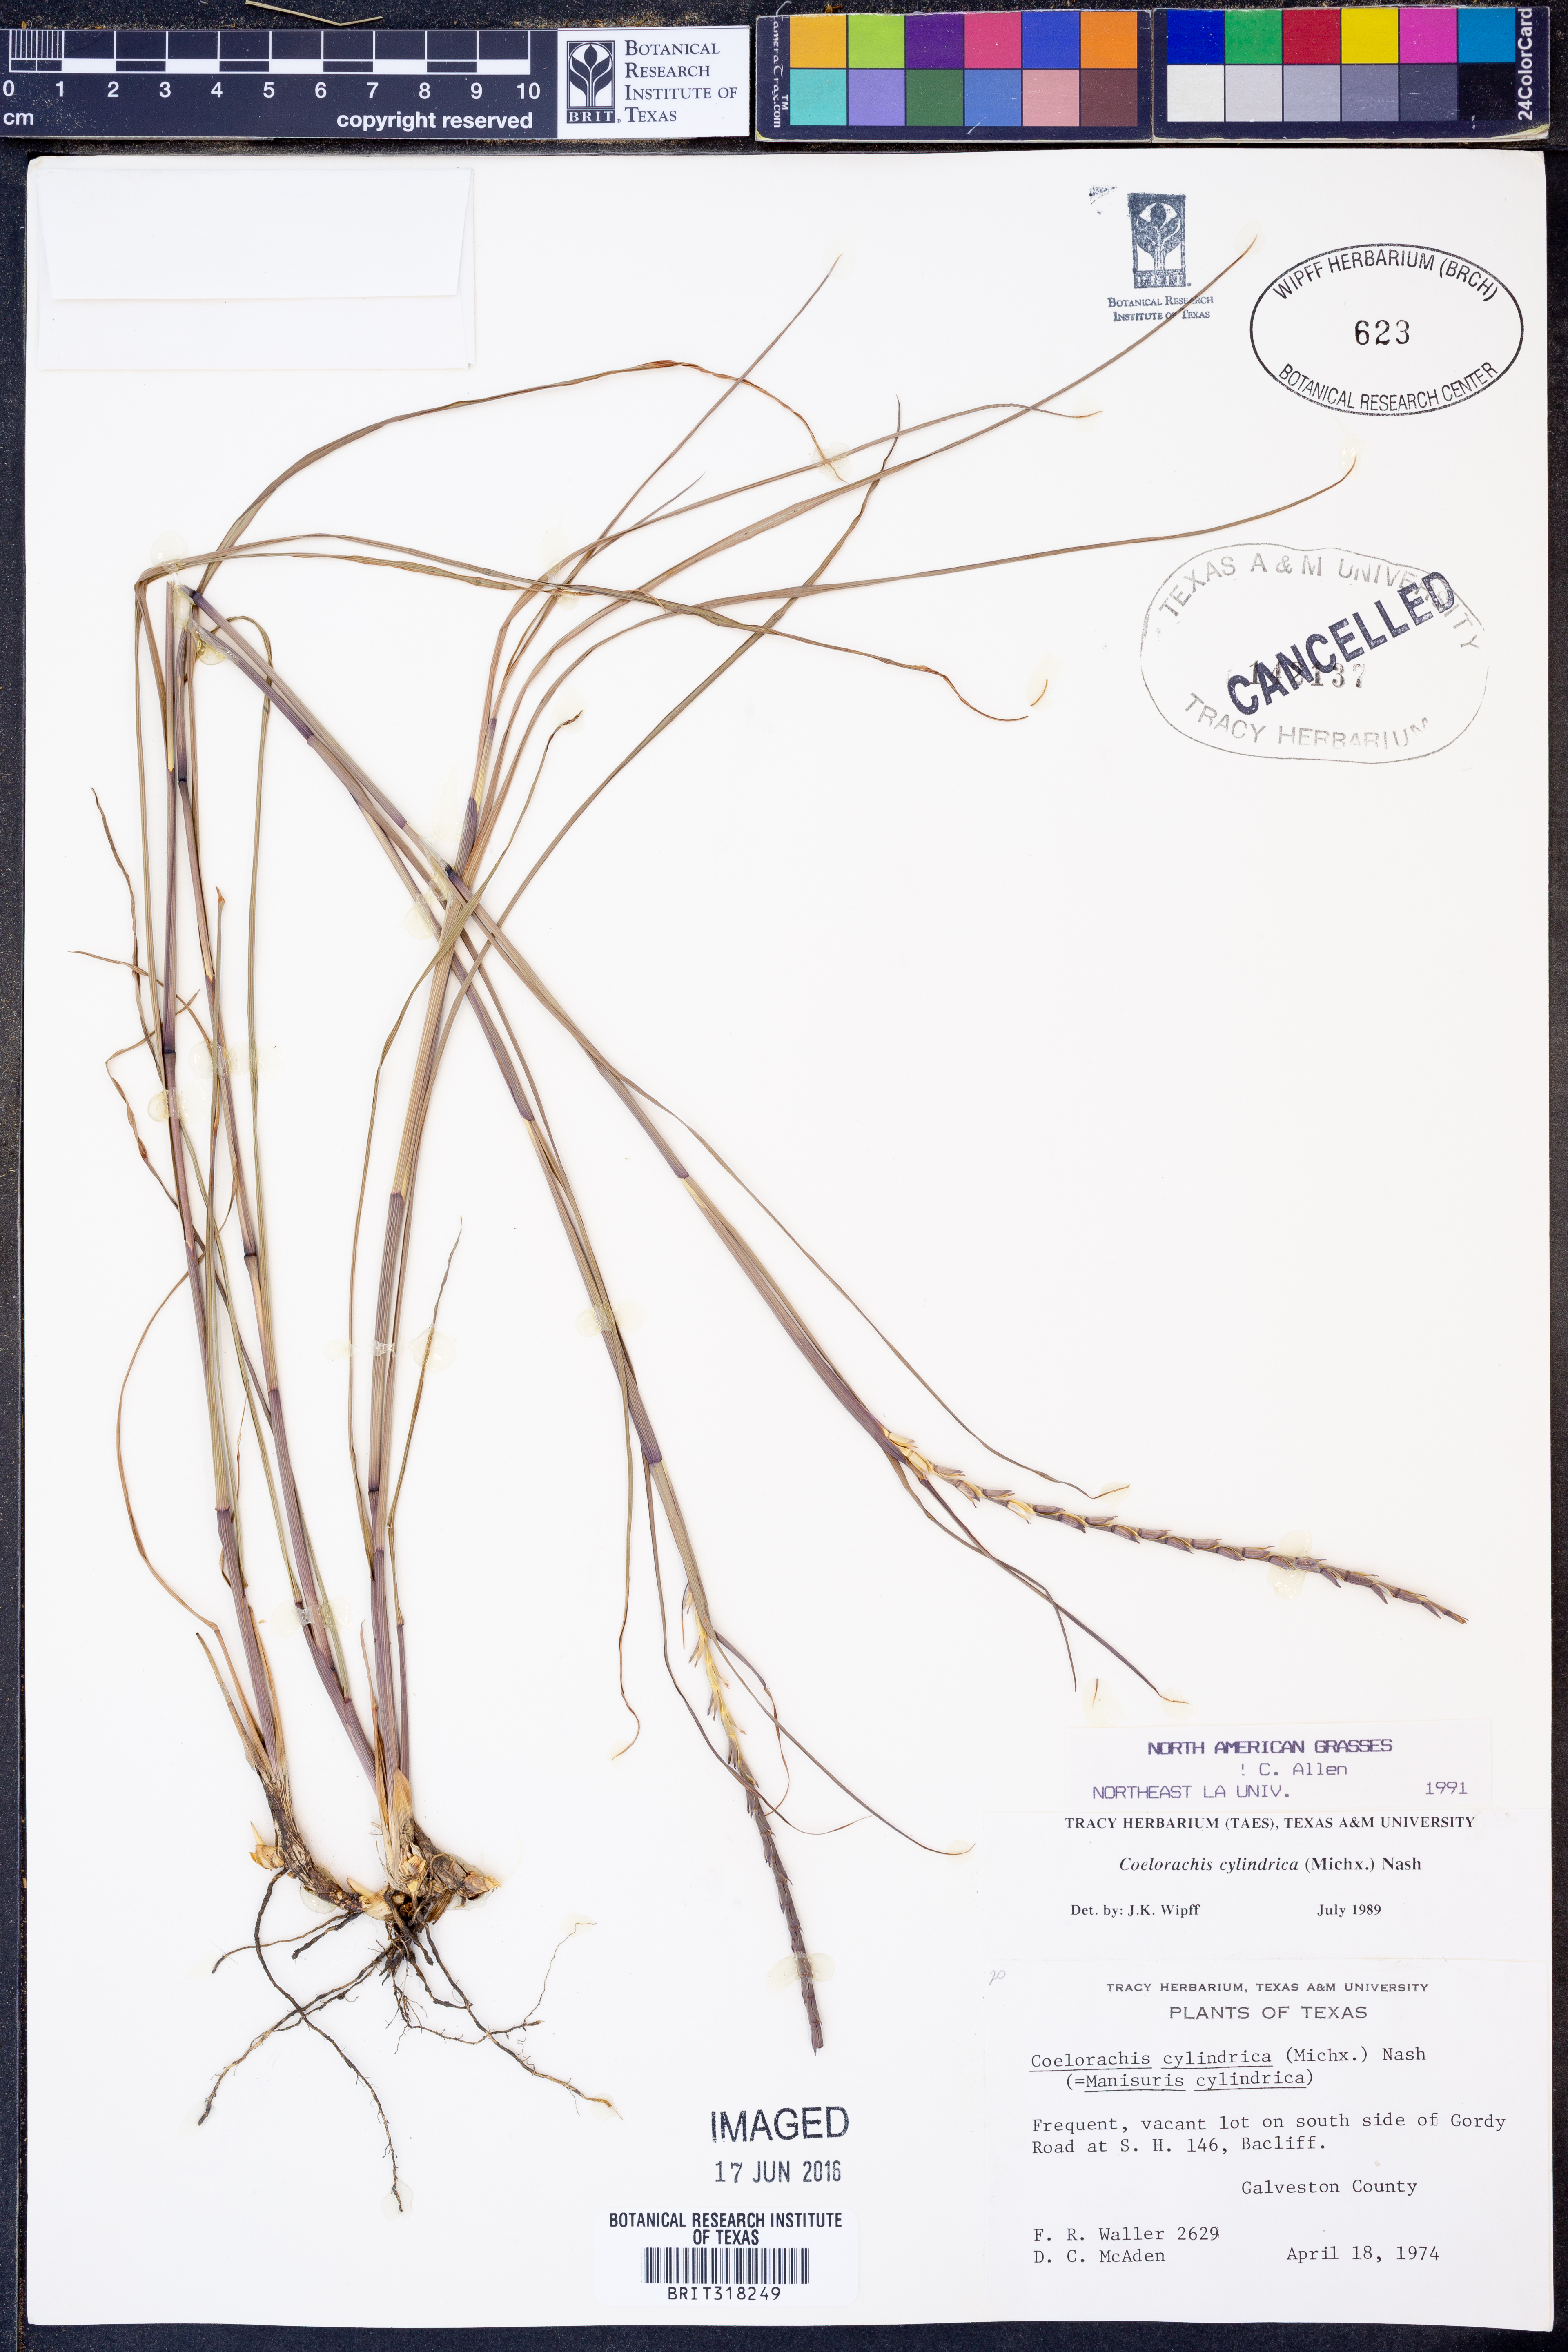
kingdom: Plantae
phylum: Tracheophyta
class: Liliopsida
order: Poales
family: Poaceae
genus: Rottboellia
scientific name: Rottboellia campestris
